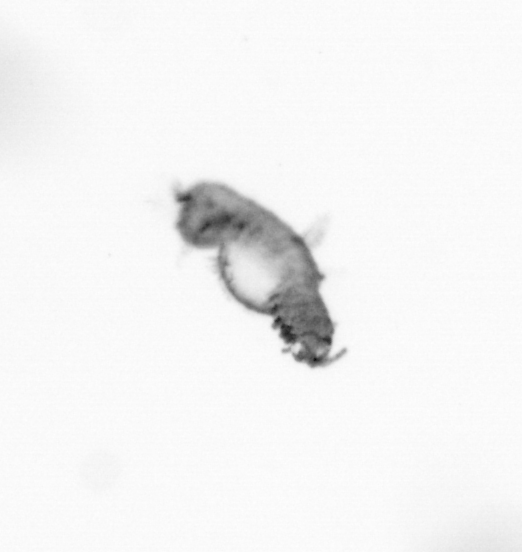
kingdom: Animalia
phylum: Annelida
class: Polychaeta
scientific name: Polychaeta
